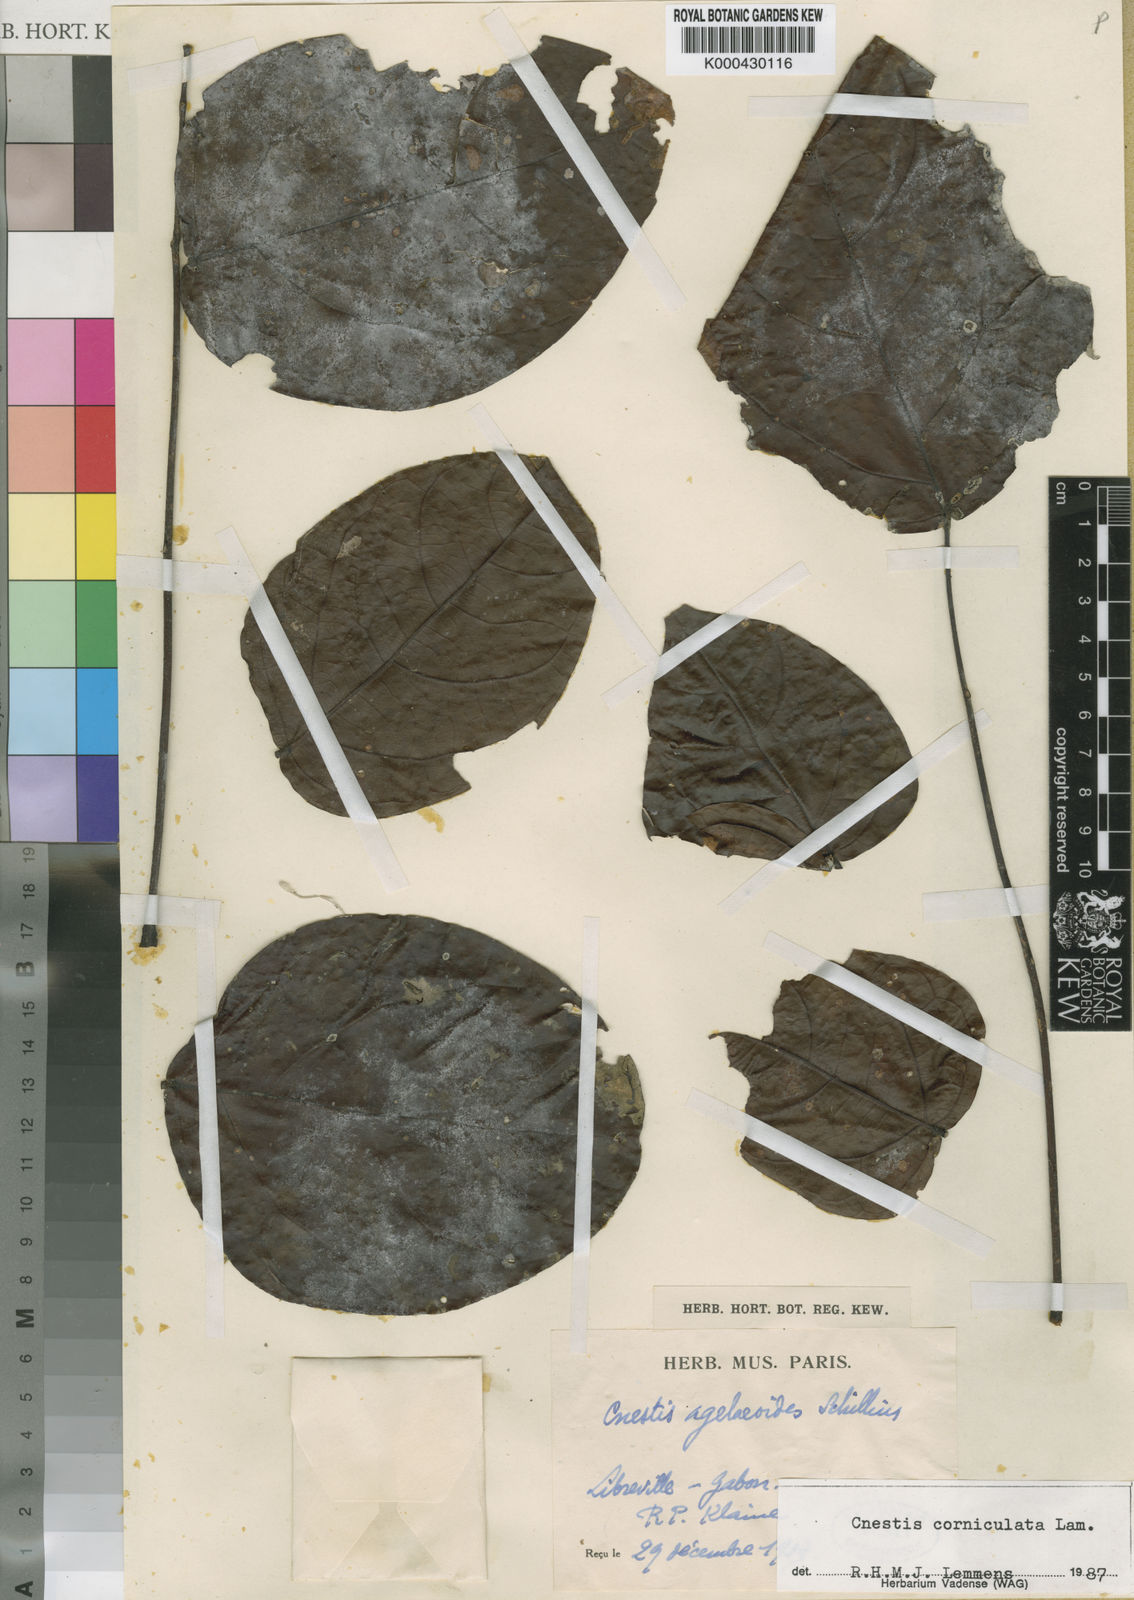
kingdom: Plantae
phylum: Tracheophyta
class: Magnoliopsida
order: Oxalidales
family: Connaraceae
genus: Cnestis
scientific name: Cnestis corniculata
